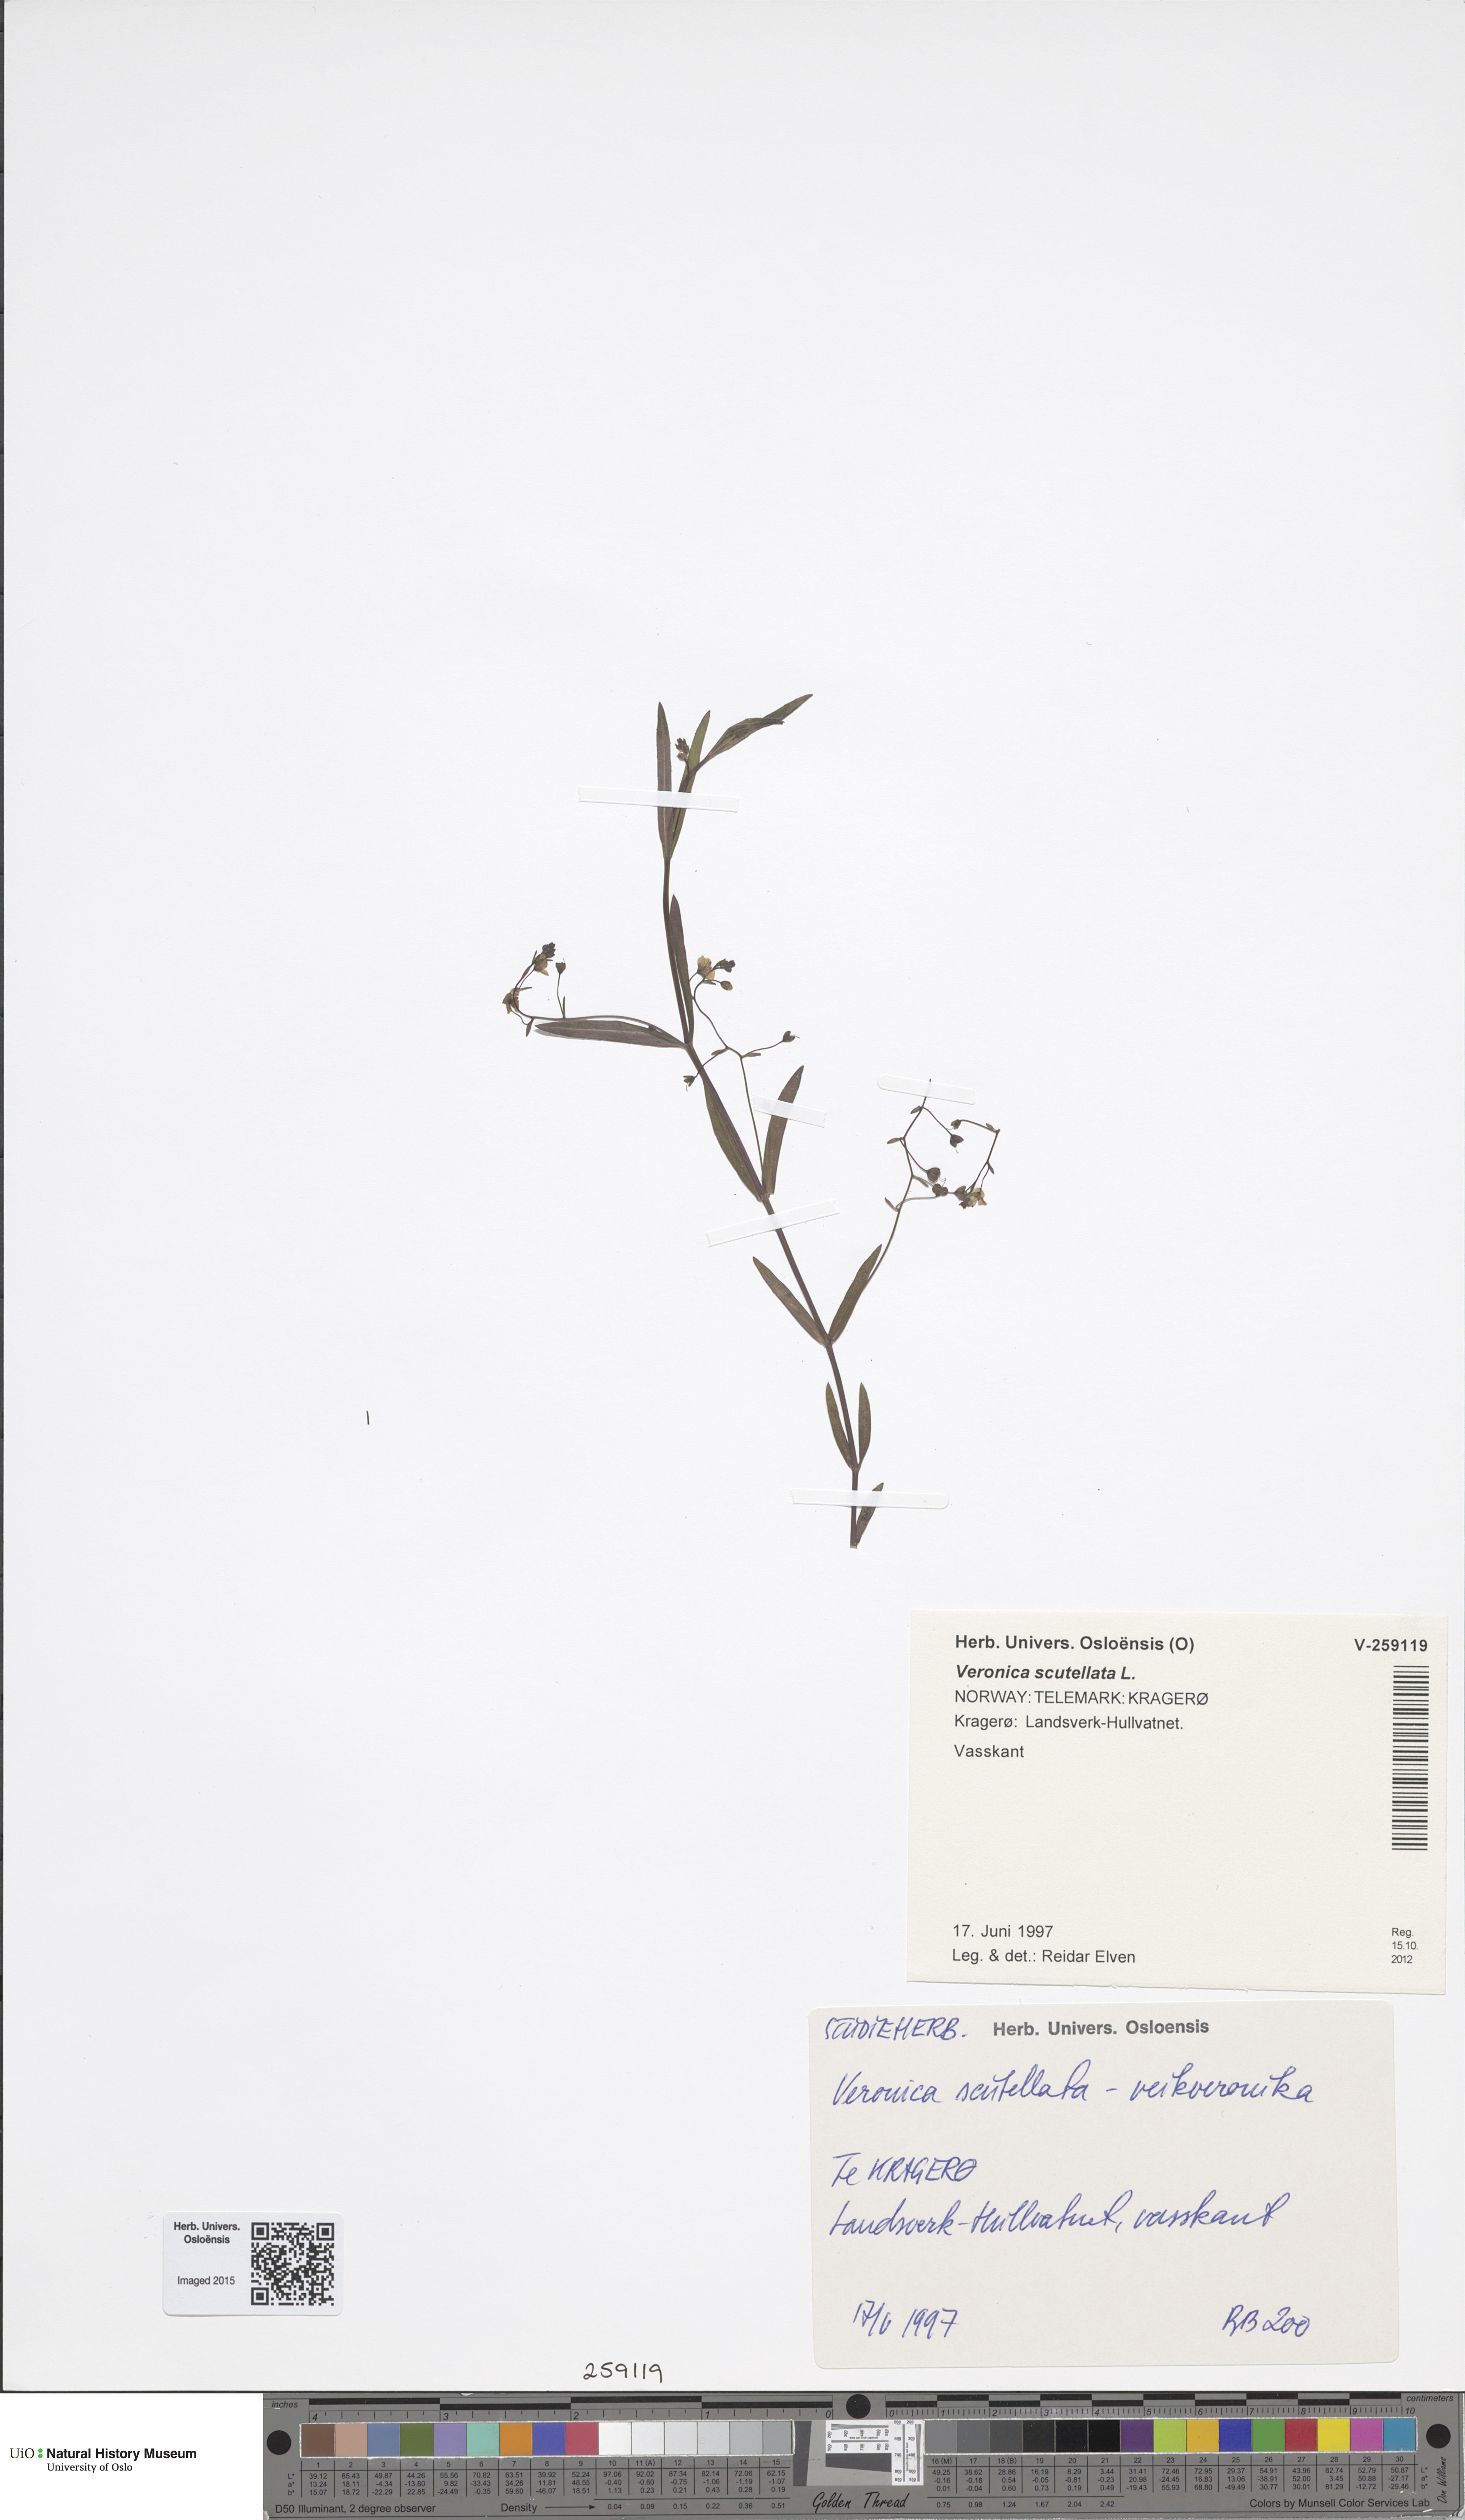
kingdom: Plantae
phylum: Tracheophyta
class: Magnoliopsida
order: Lamiales
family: Plantaginaceae
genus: Veronica
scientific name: Veronica scutellata
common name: Marsh speedwell
